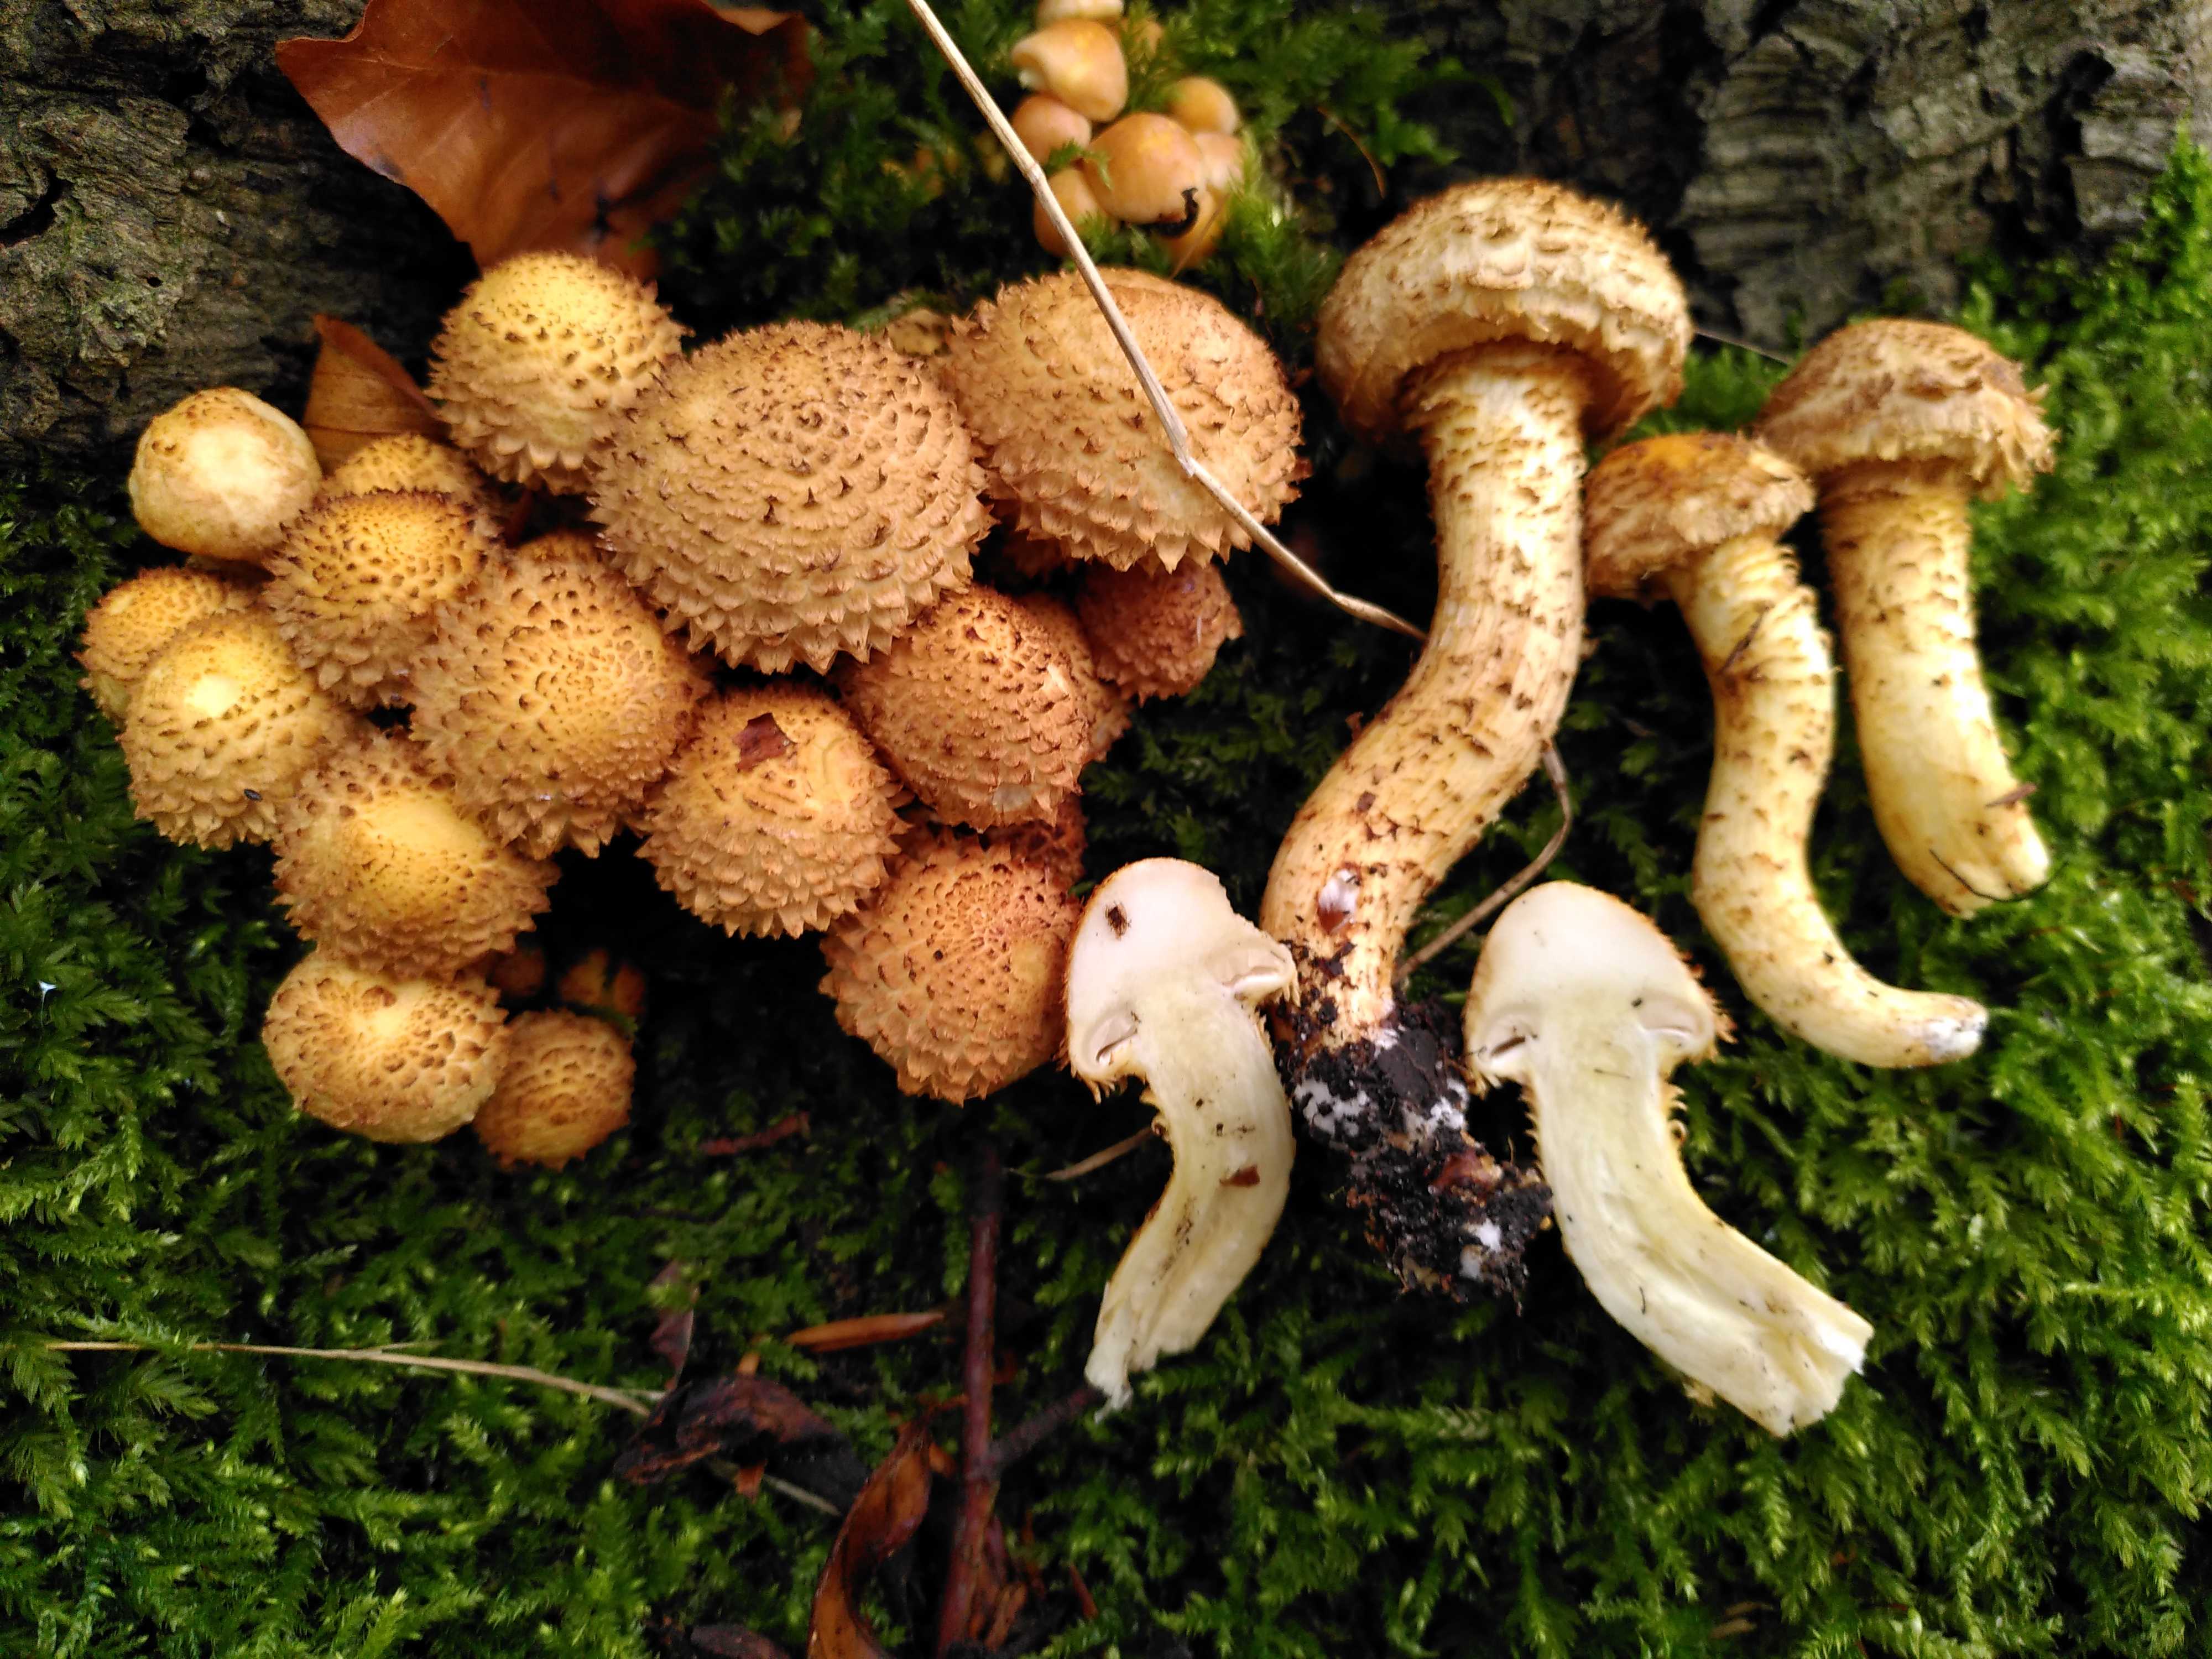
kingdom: Fungi
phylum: Basidiomycota
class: Agaricomycetes
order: Agaricales
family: Strophariaceae
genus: Pholiota
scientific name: Pholiota squarrosa
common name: krumskællet skælhat
